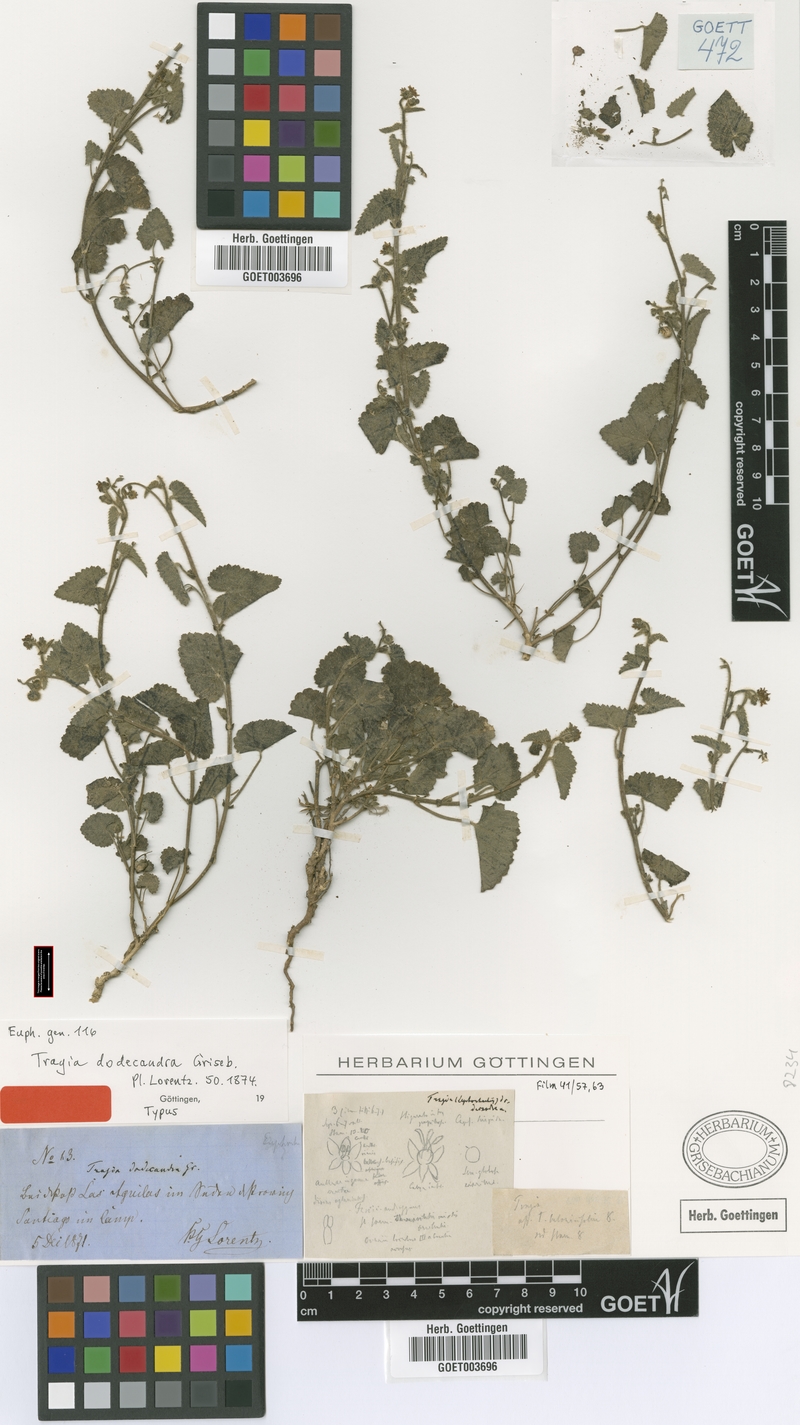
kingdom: Plantae
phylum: Tracheophyta
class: Magnoliopsida
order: Malpighiales
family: Euphorbiaceae
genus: Tragia
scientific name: Tragia dodecandra
